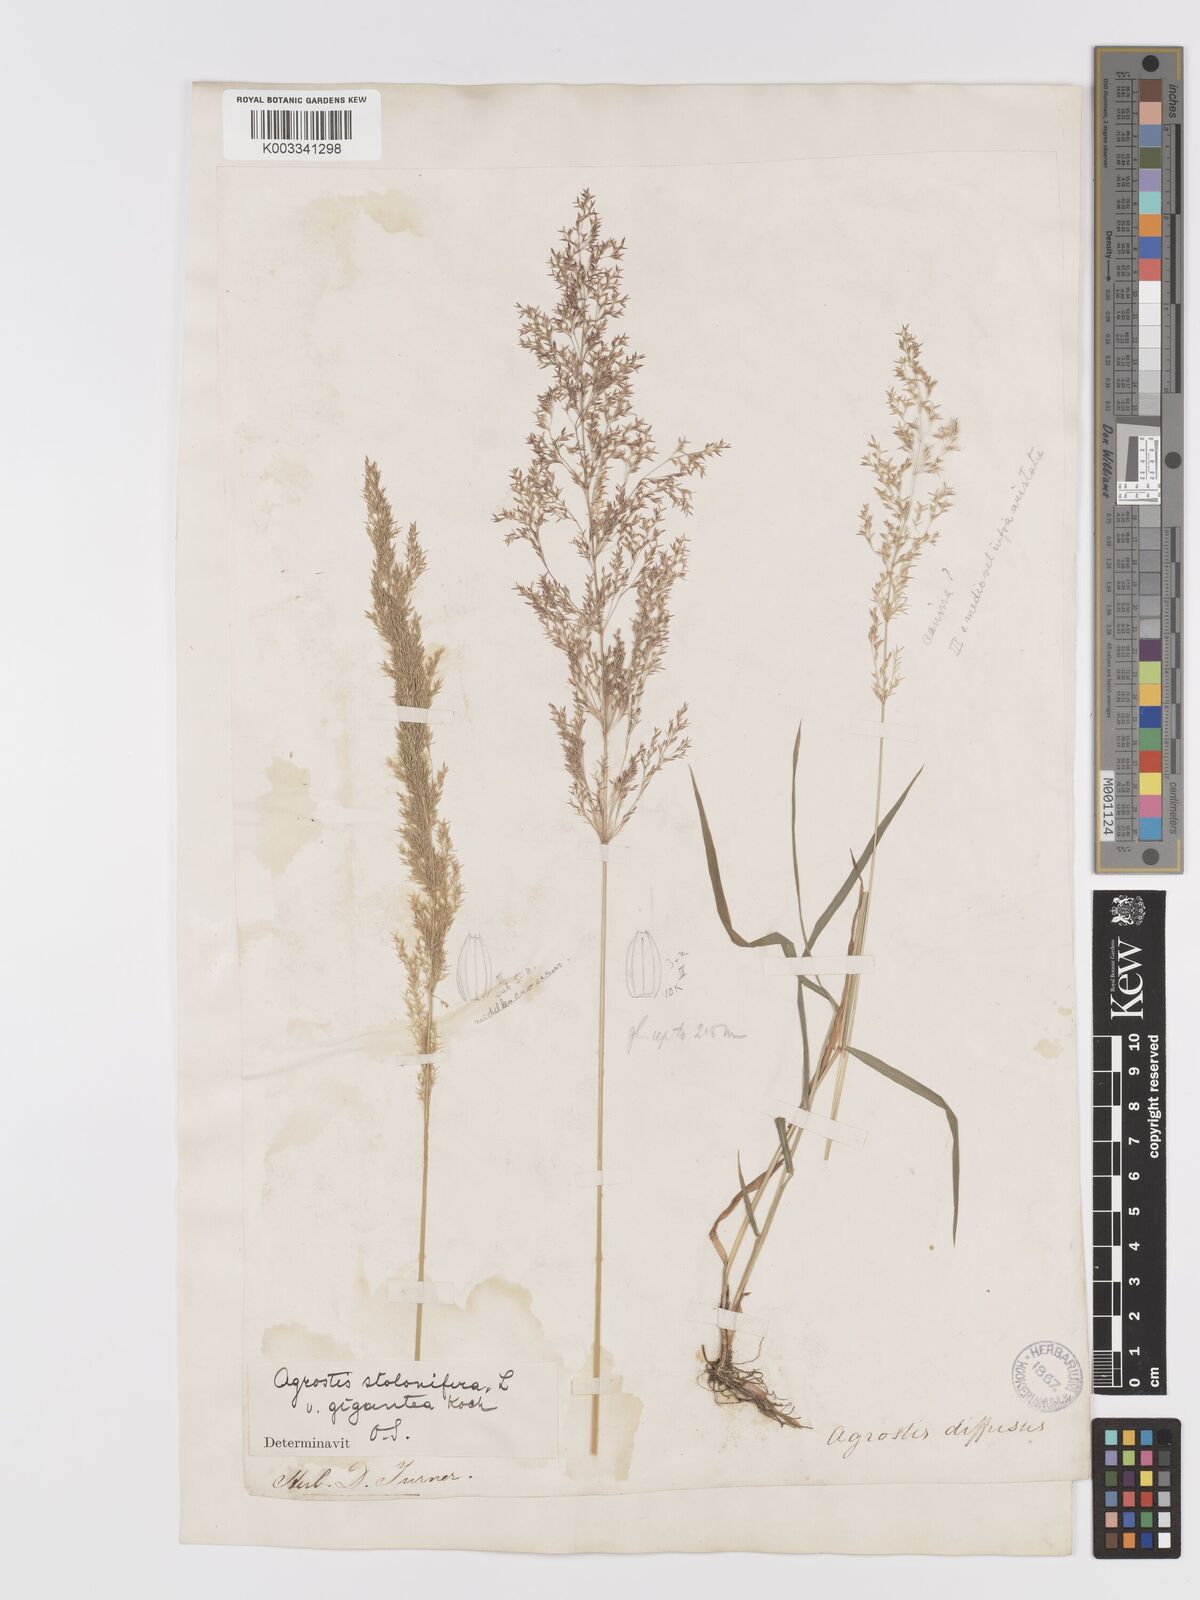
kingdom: Plantae
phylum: Tracheophyta
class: Liliopsida
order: Poales
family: Poaceae
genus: Agrostis
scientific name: Agrostis gigantea
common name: Black bent
